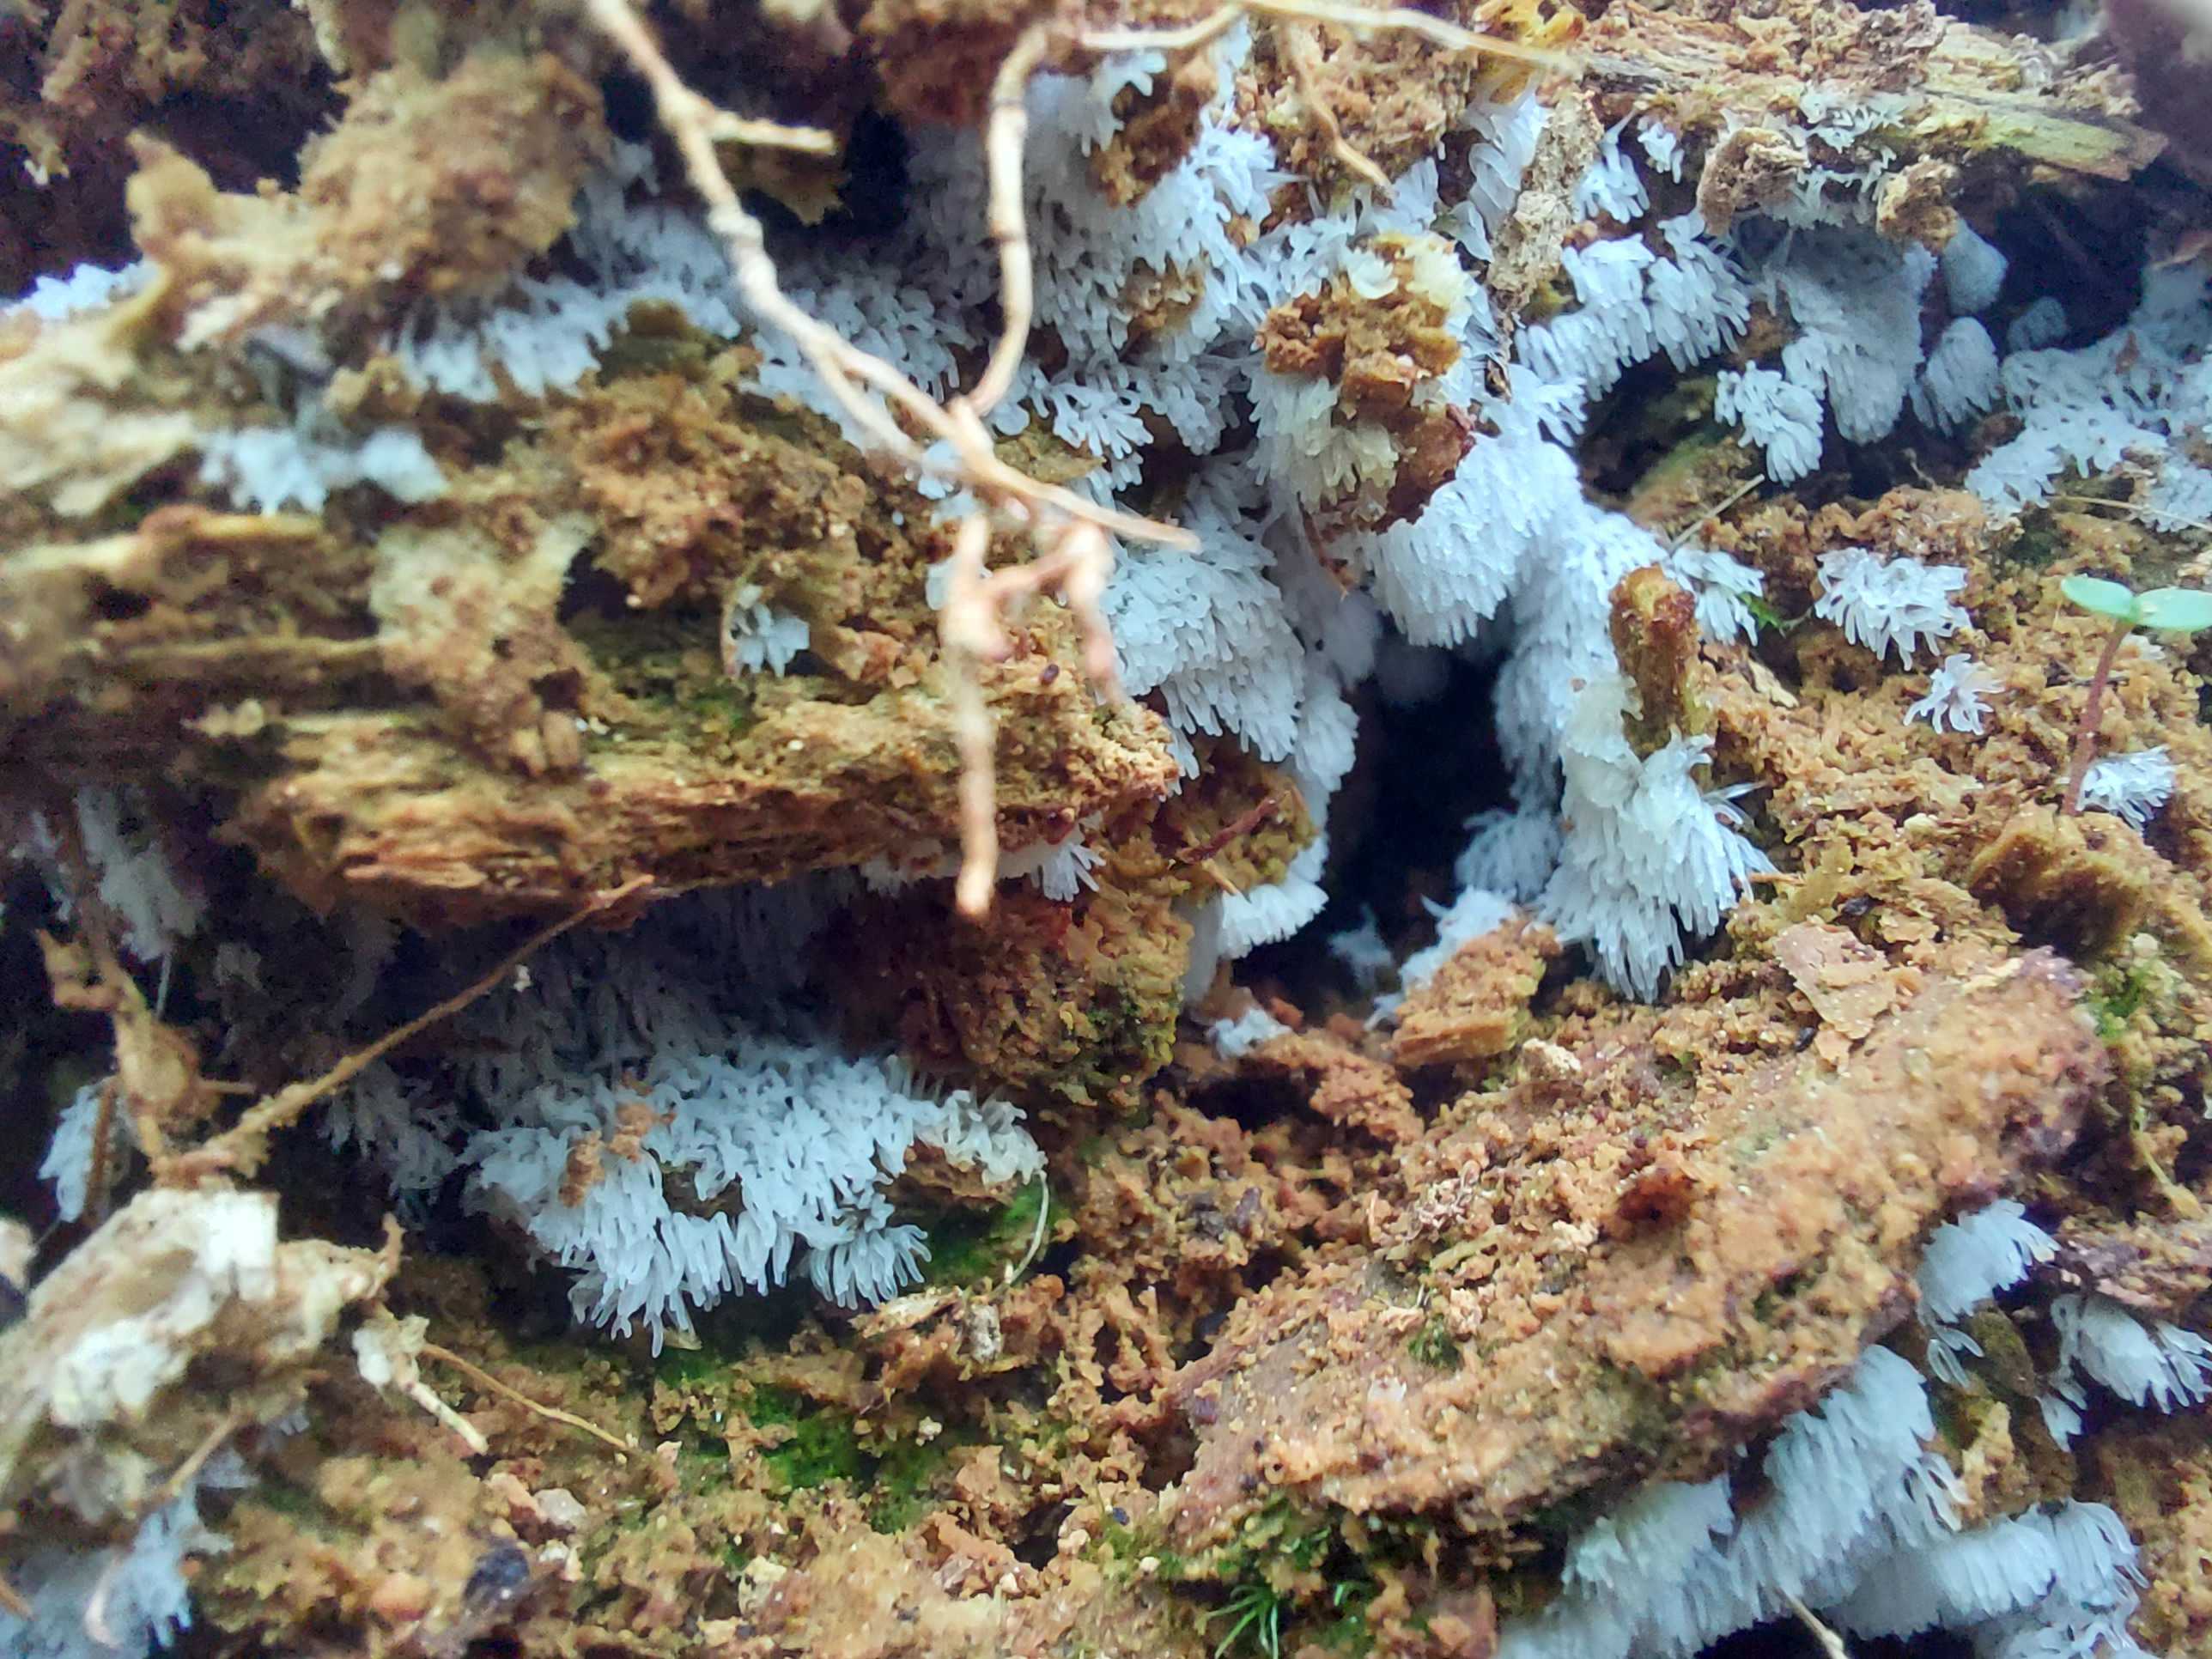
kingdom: Protozoa
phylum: Mycetozoa
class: Protosteliomycetes
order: Ceratiomyxales
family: Ceratiomyxaceae
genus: Ceratiomyxa
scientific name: Ceratiomyxa fruticulosa
